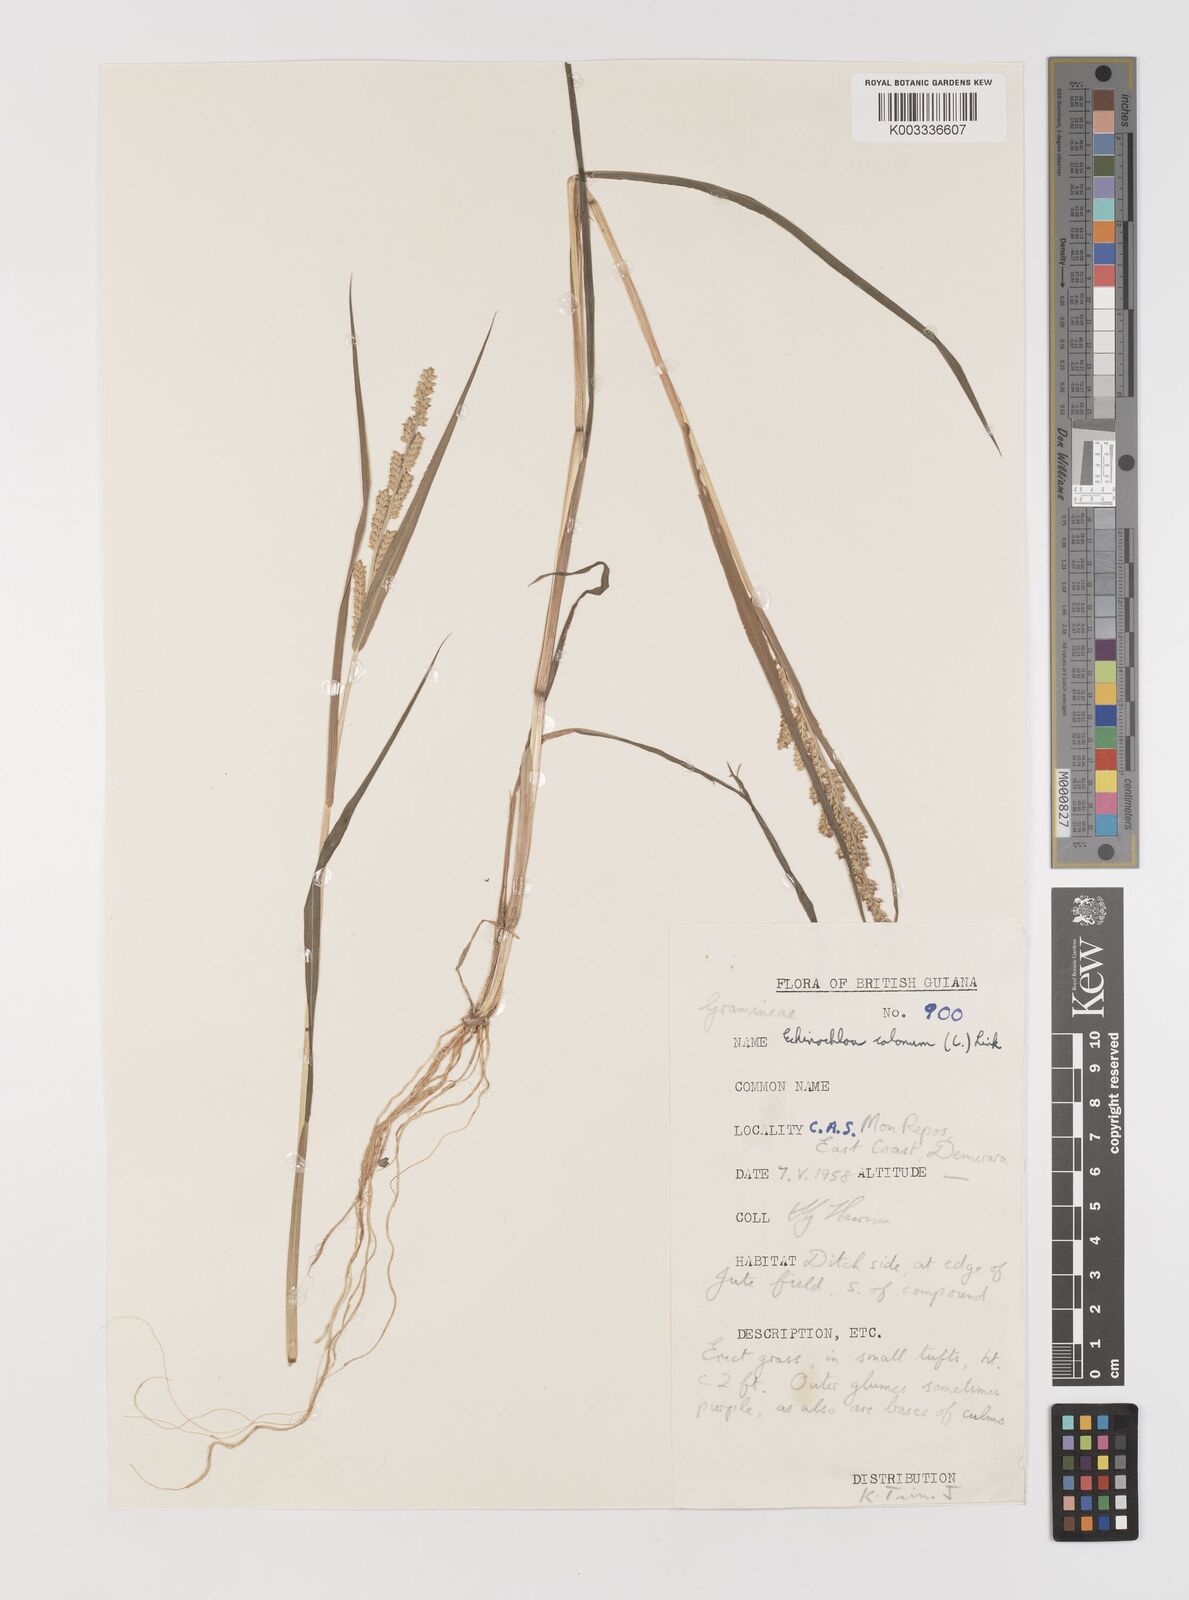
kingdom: Plantae
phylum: Tracheophyta
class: Liliopsida
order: Poales
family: Poaceae
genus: Echinochloa
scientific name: Echinochloa colonum
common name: Jungle rice
